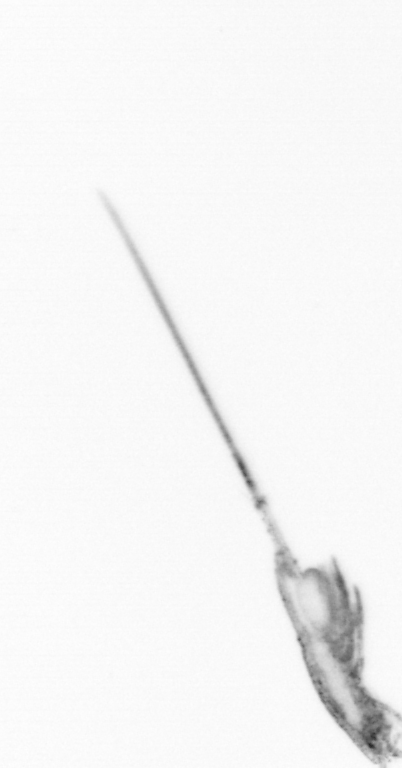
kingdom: Animalia
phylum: Arthropoda
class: Copepoda
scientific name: Copepoda
